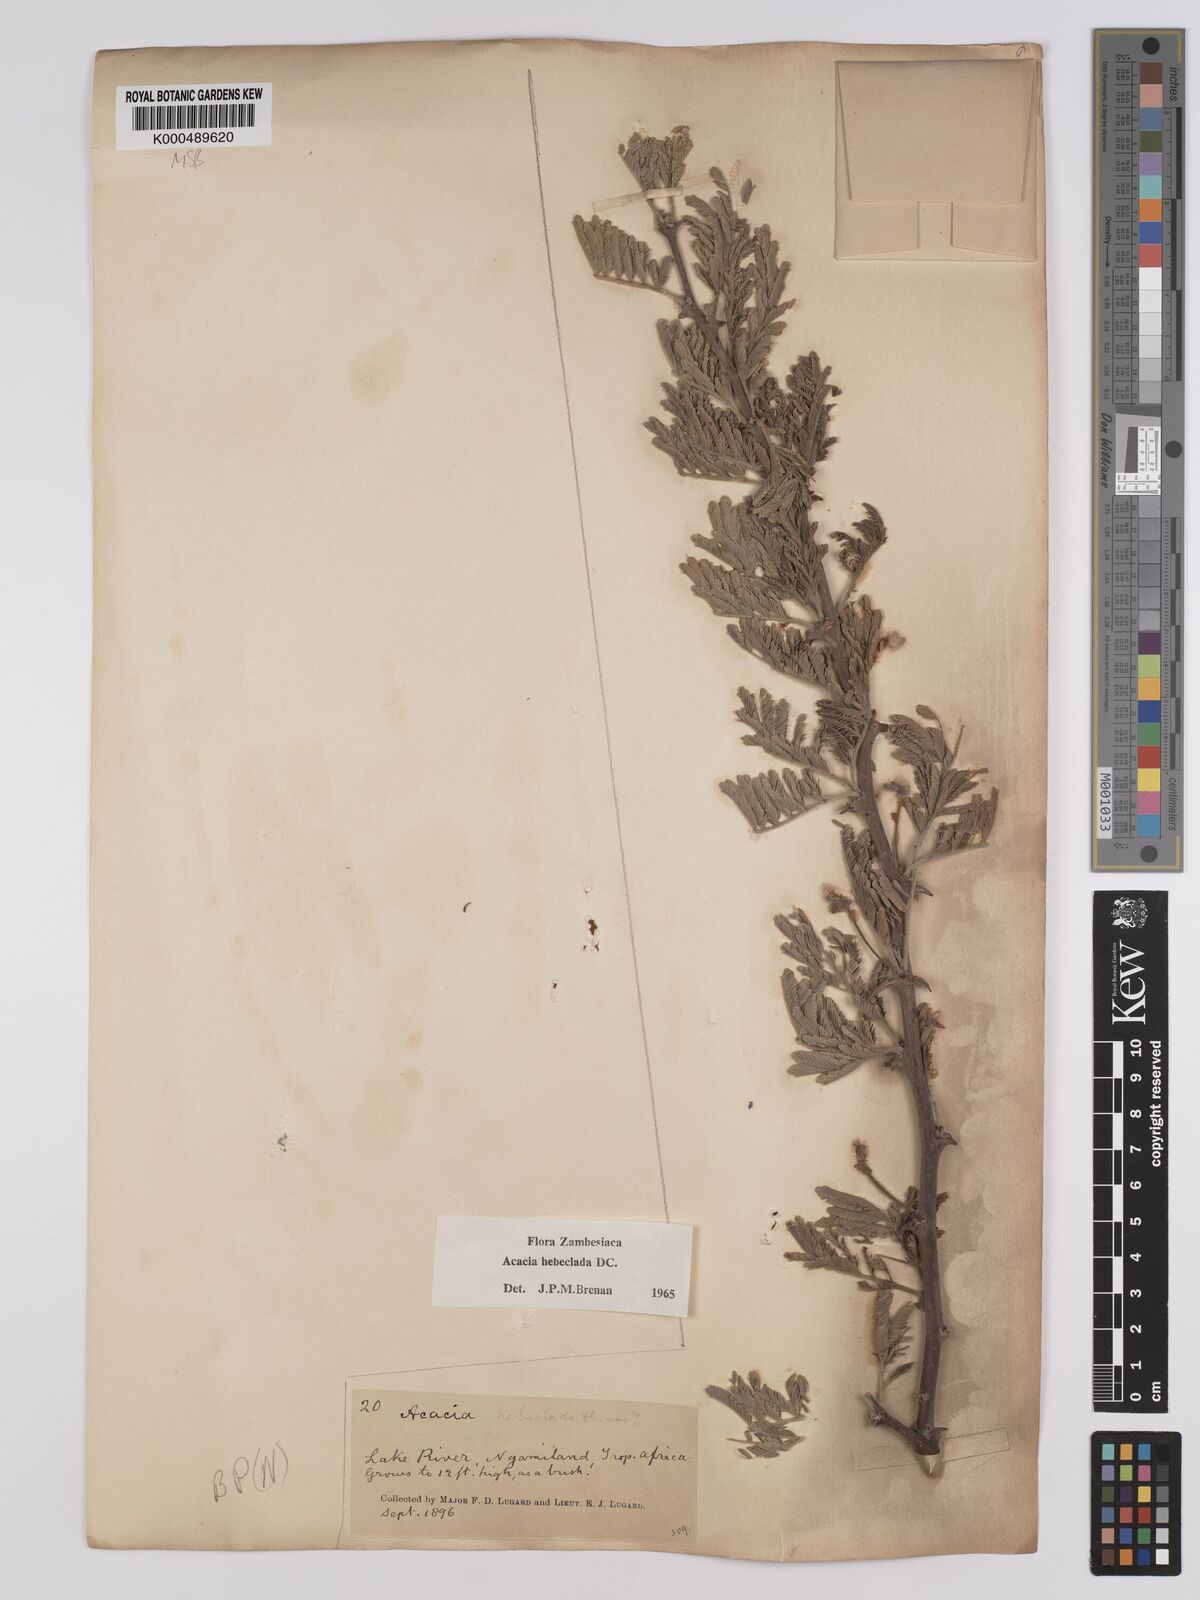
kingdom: Plantae
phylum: Tracheophyta
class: Magnoliopsida
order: Fabales
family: Fabaceae
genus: Vachellia
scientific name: Vachellia hebeclada
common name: Candle thorn
